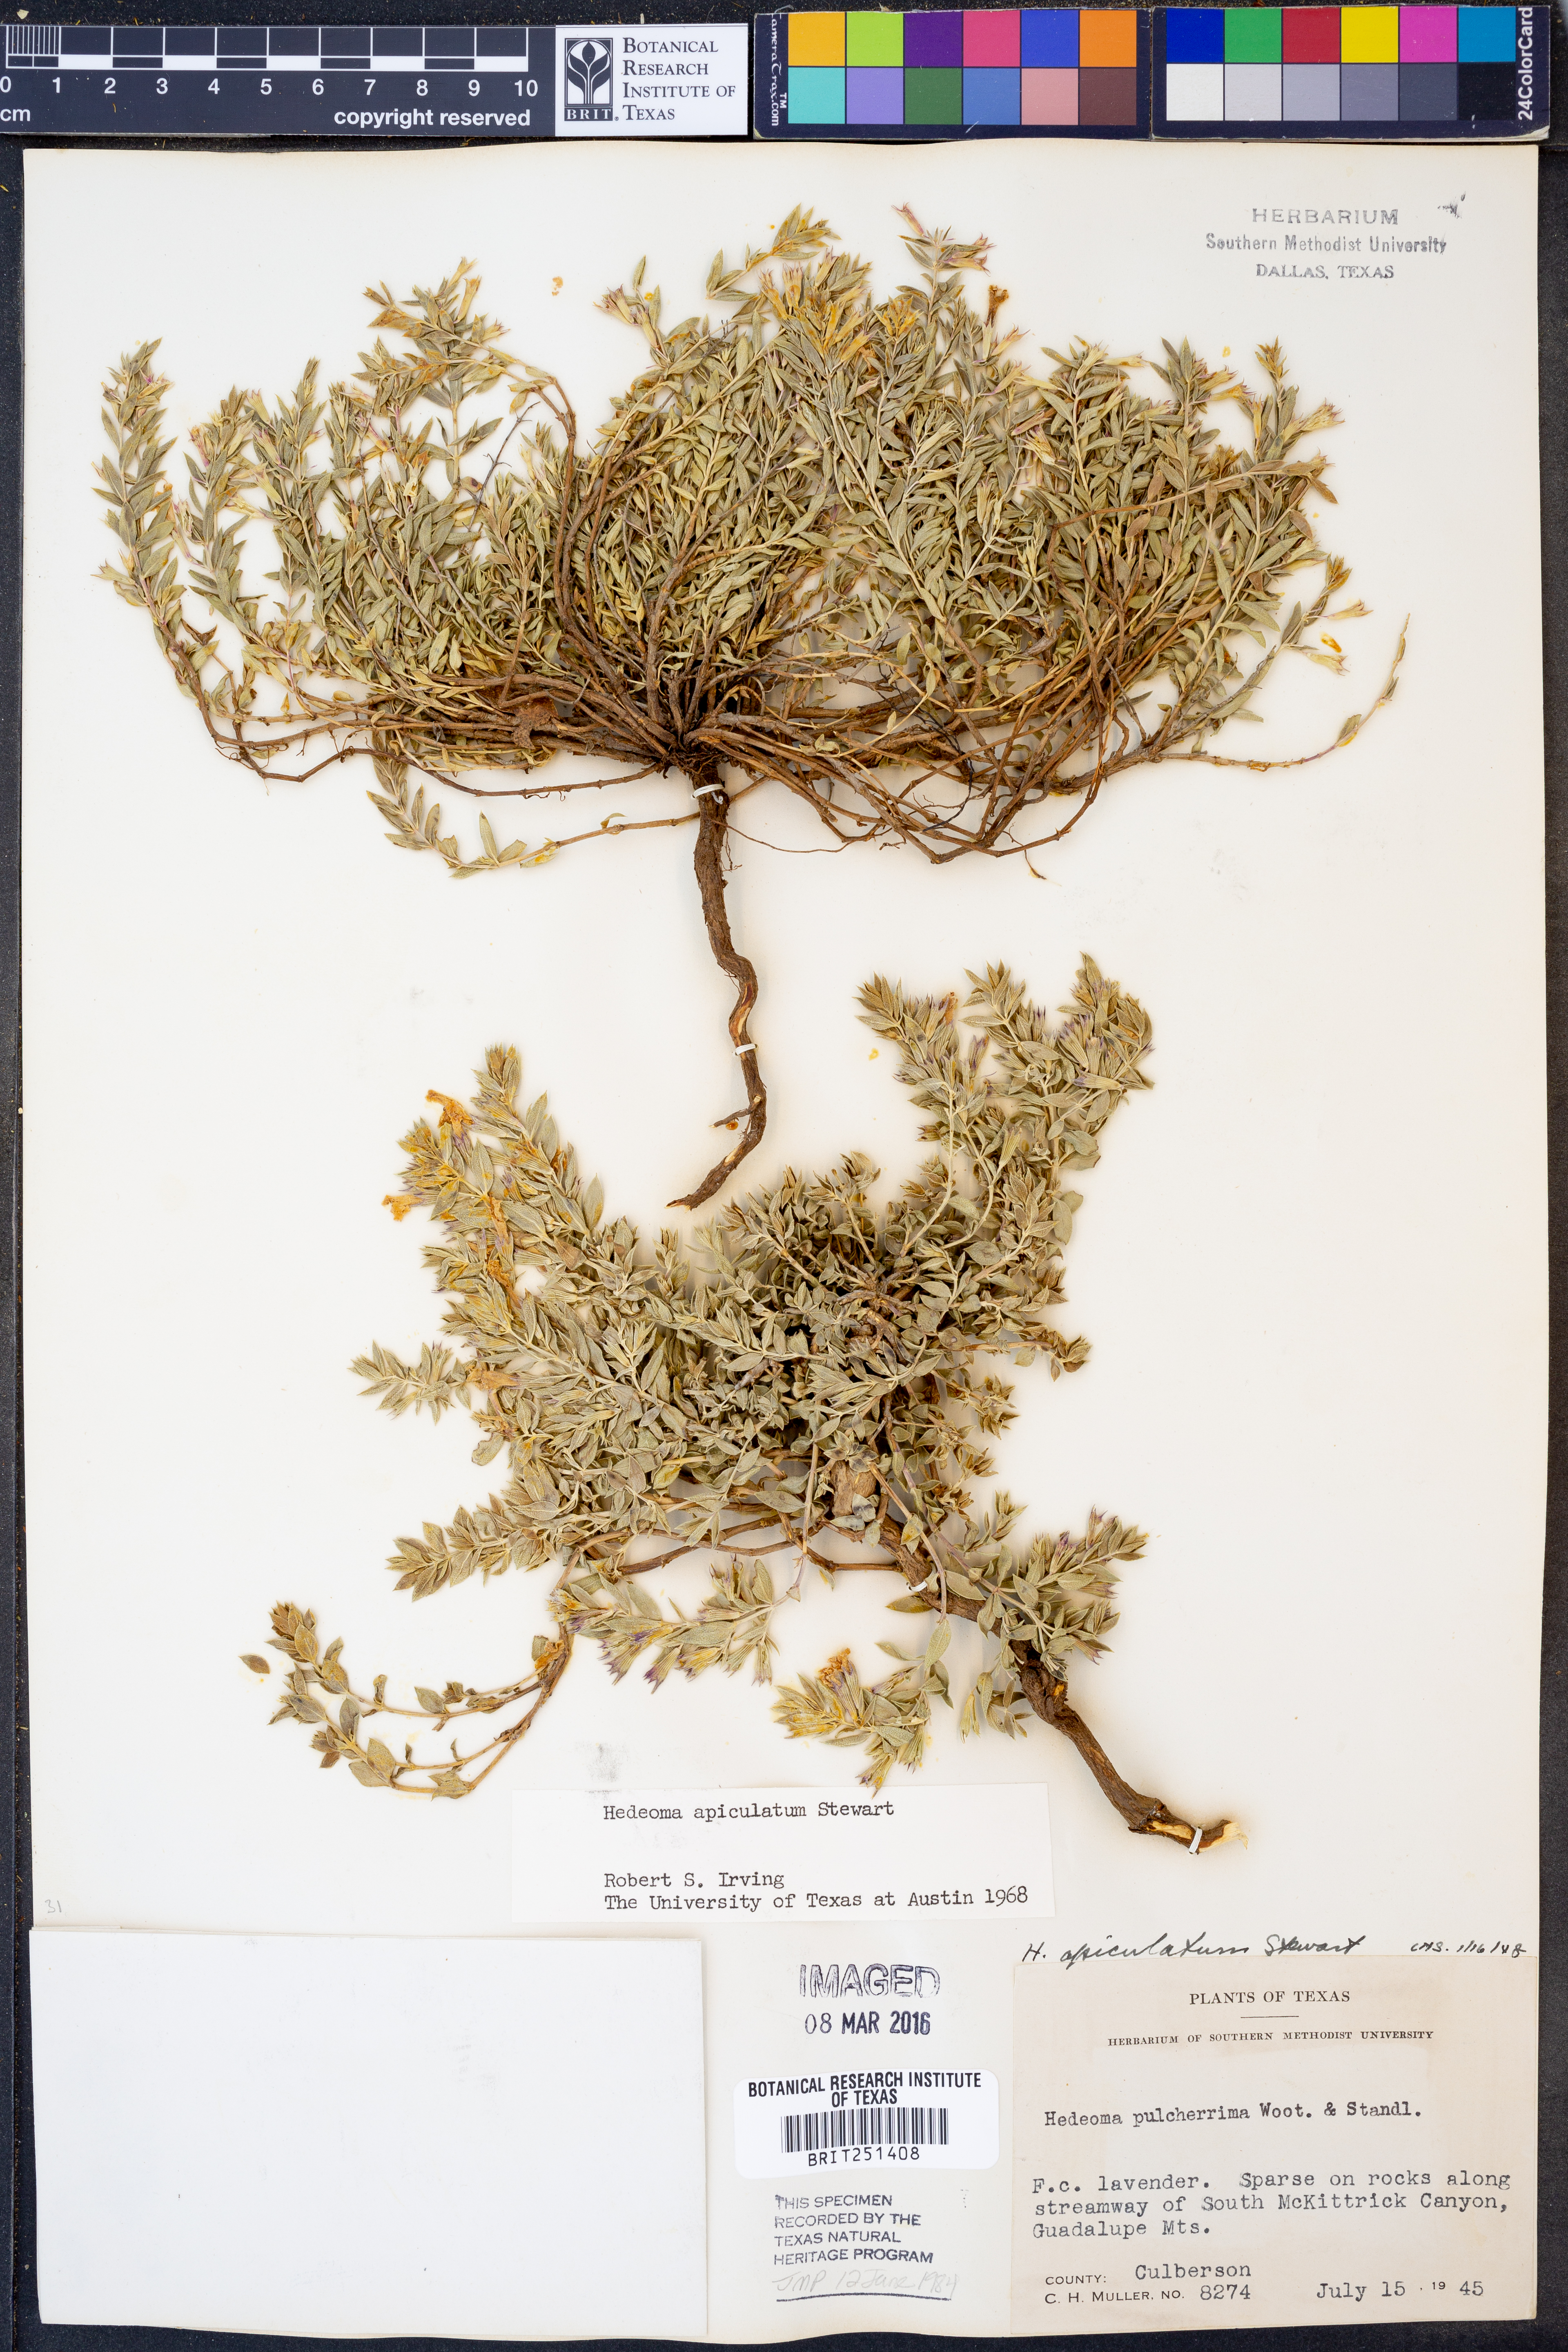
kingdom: Plantae
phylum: Tracheophyta
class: Magnoliopsida
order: Lamiales
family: Lamiaceae
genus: Hedeoma
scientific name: Hedeoma apiculata
